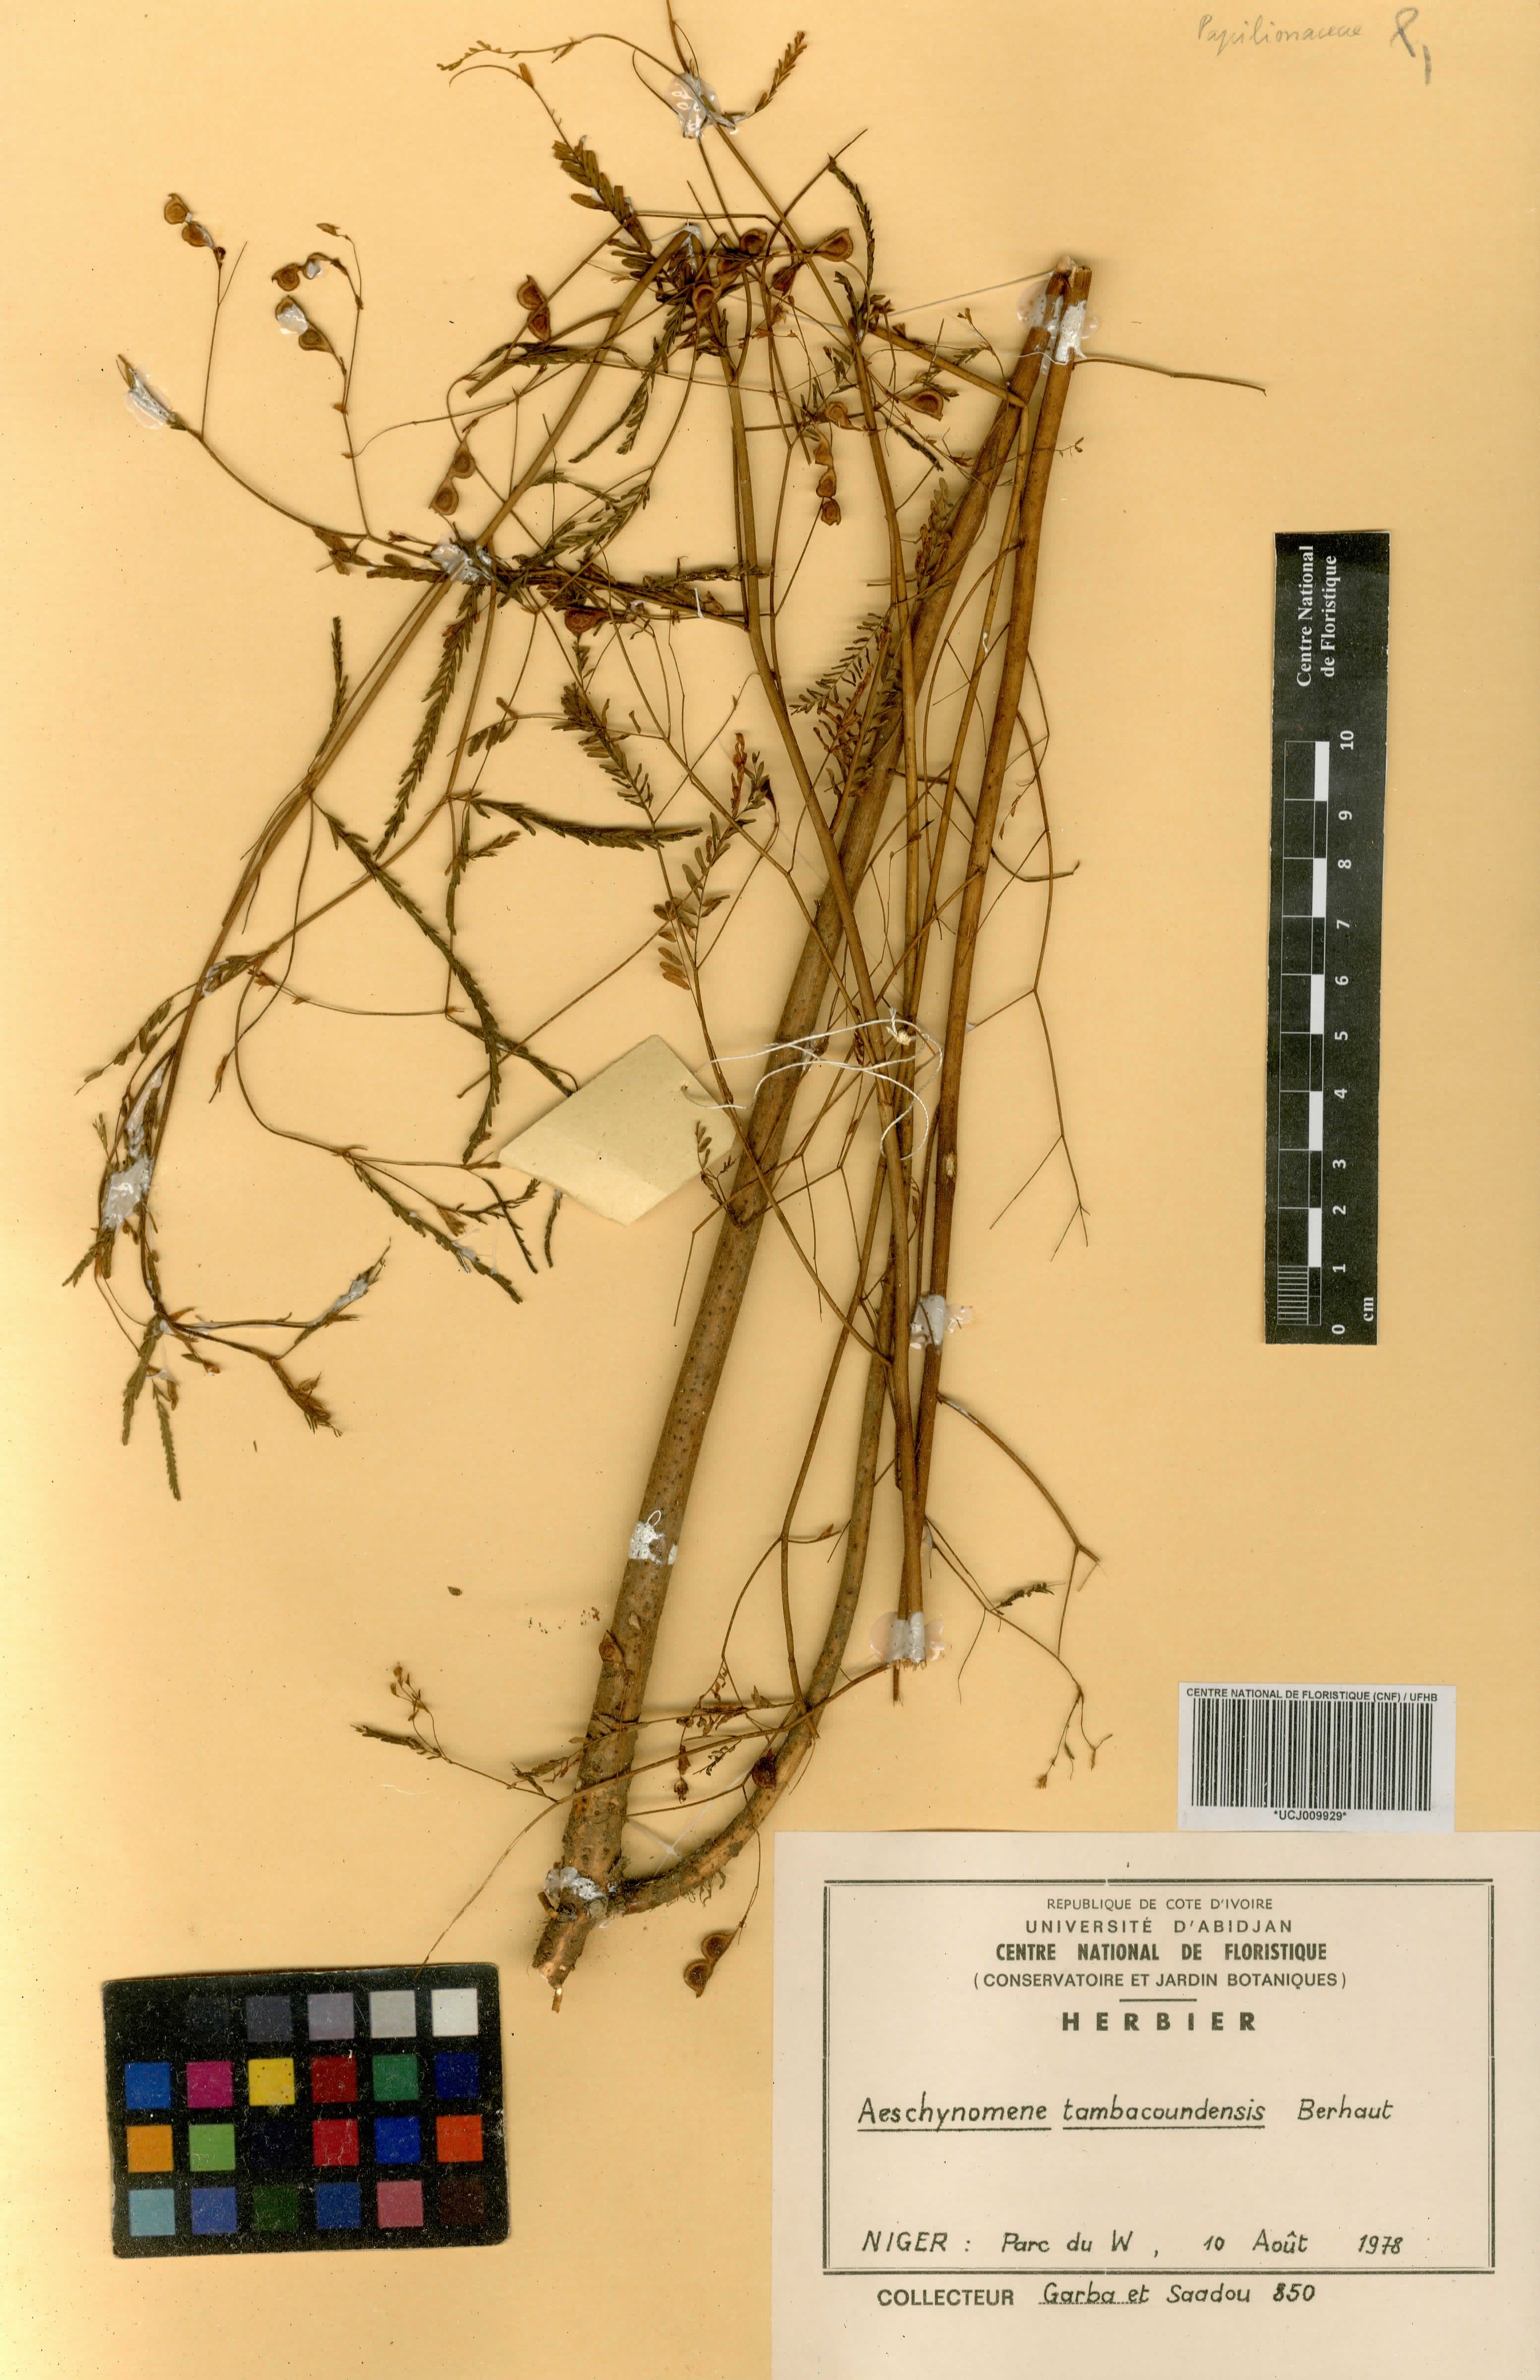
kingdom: Plantae
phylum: Tracheophyta
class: Magnoliopsida
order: Fabales
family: Fabaceae
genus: Aeschynomene
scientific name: Aeschynomene tambacoundensis
